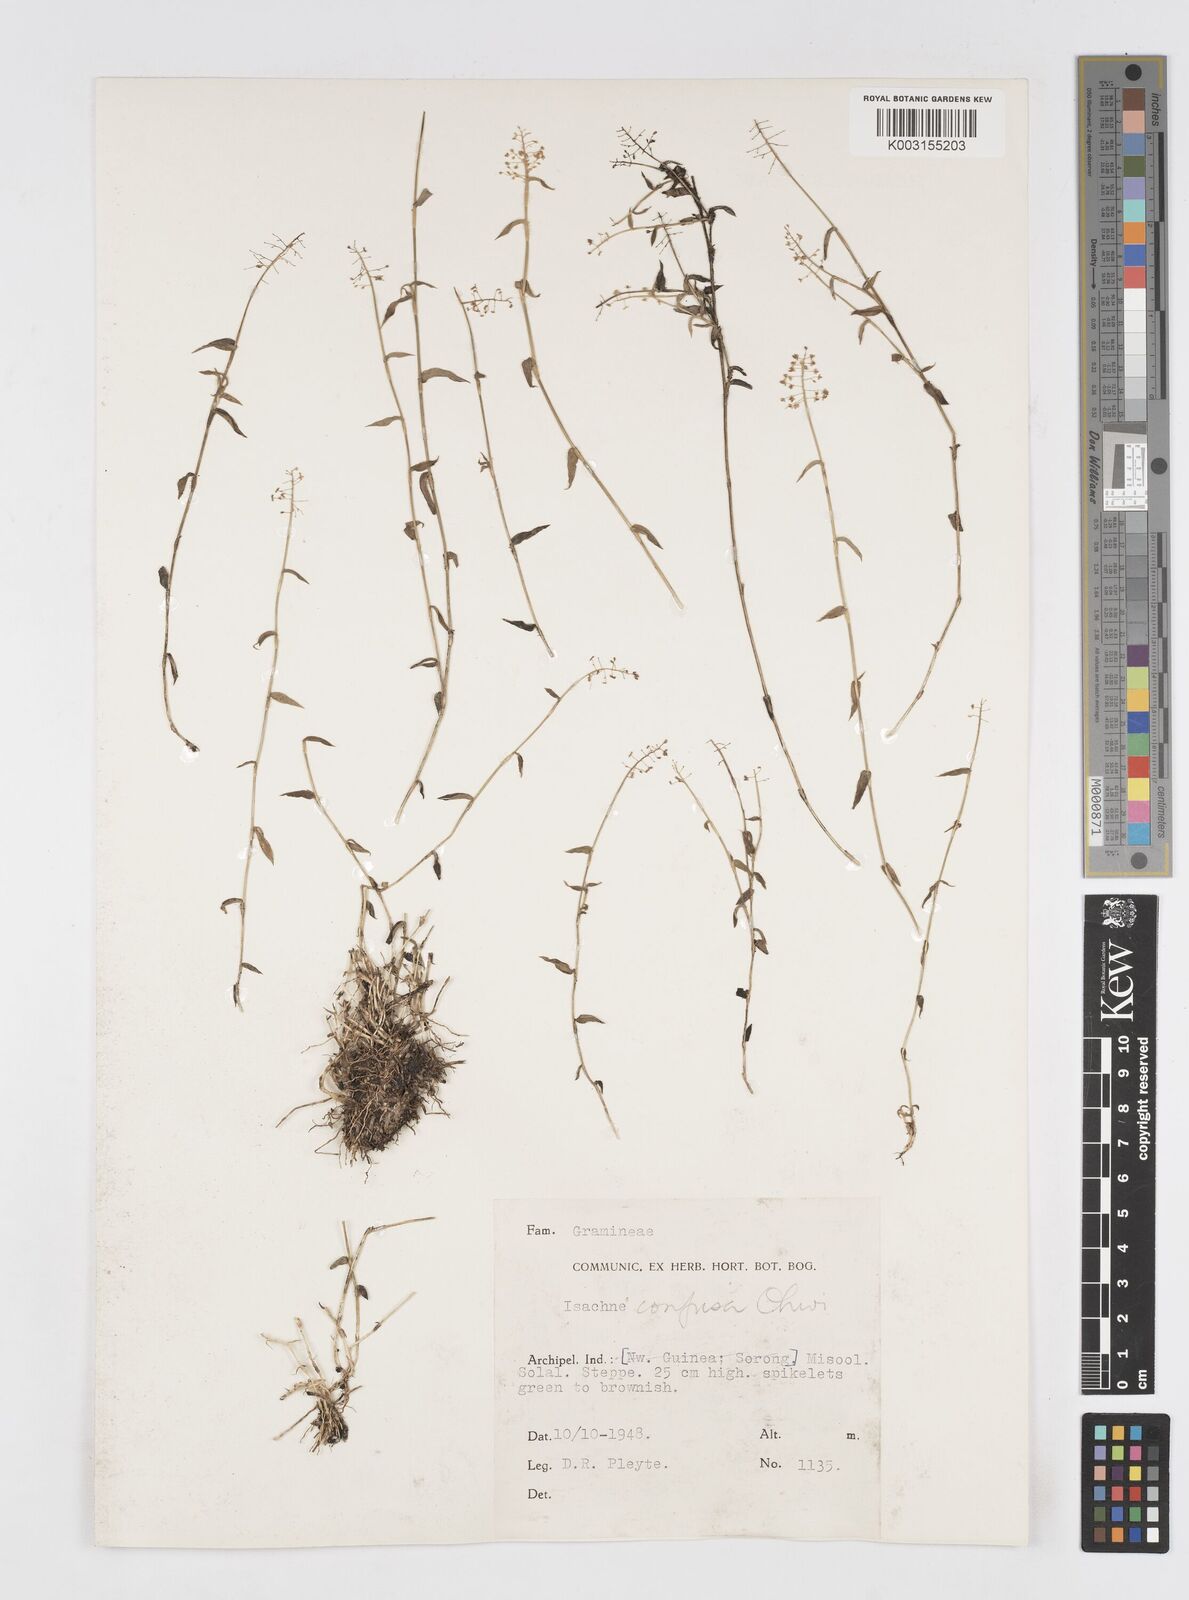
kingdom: Plantae
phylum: Tracheophyta
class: Liliopsida
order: Poales
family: Poaceae
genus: Isachne
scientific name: Isachne confusa
